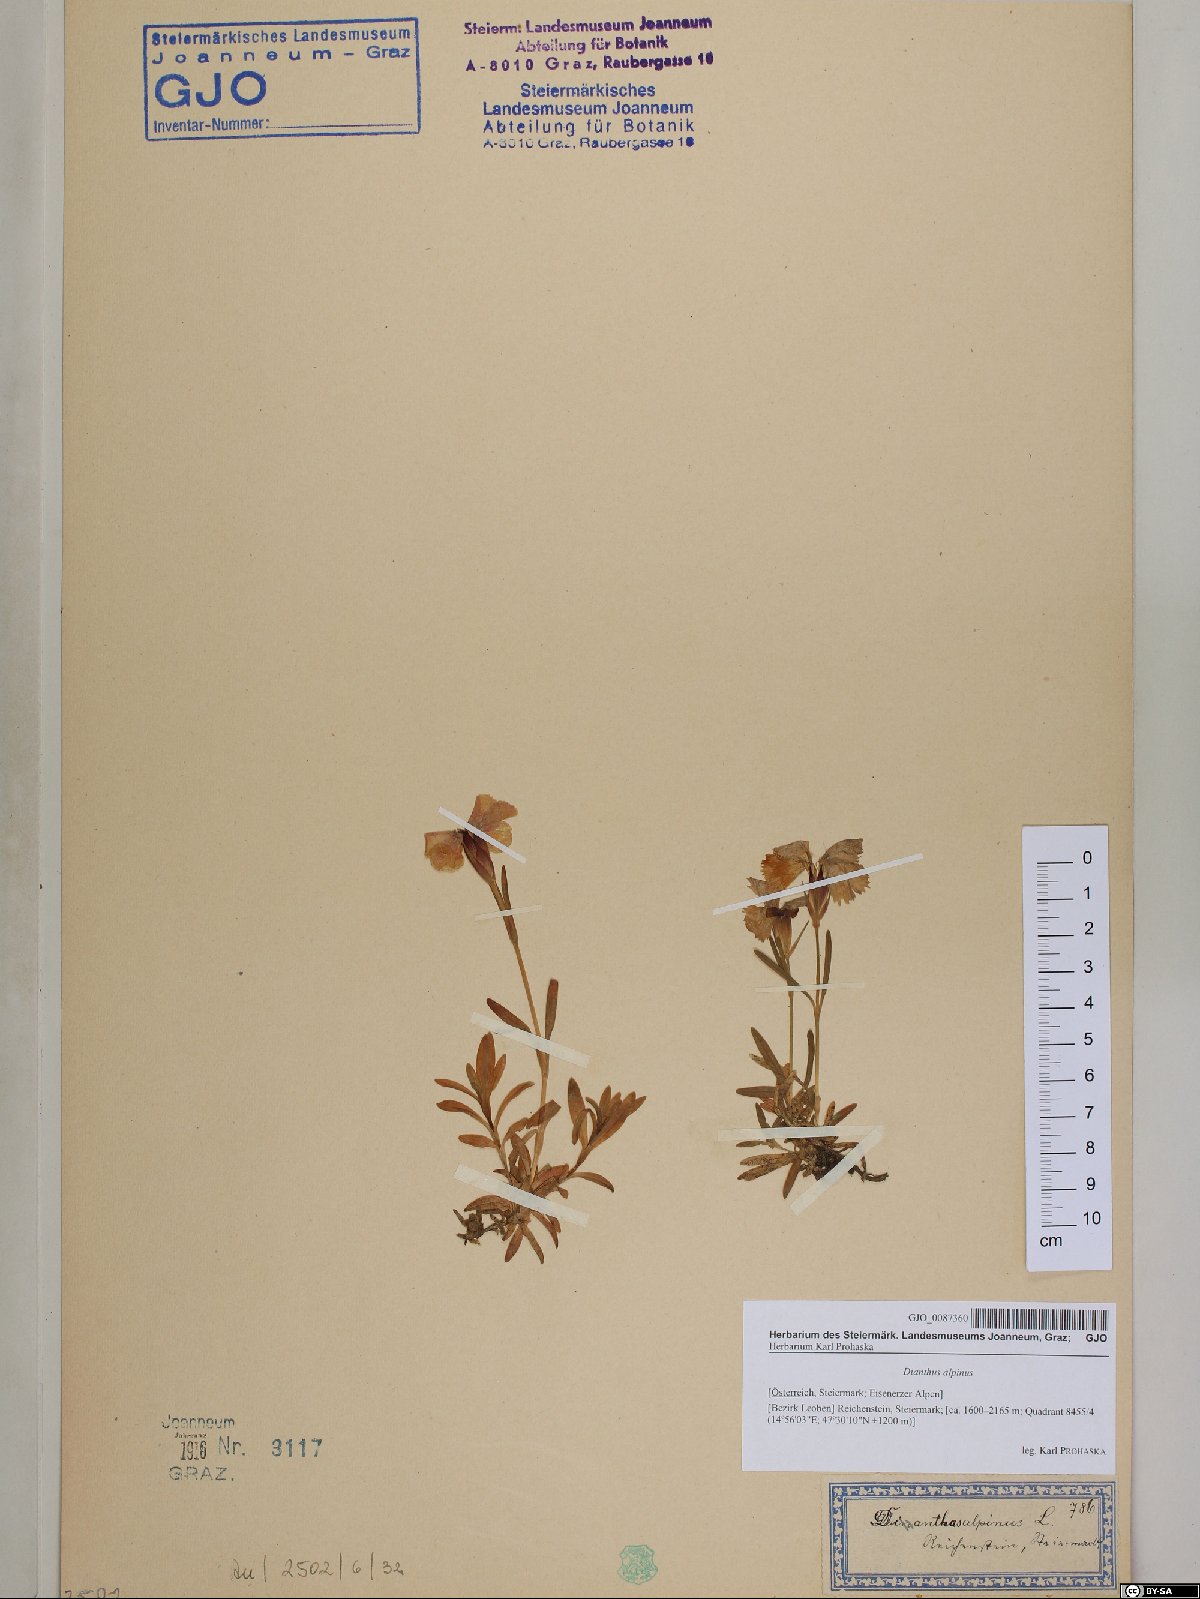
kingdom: Plantae
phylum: Tracheophyta
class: Magnoliopsida
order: Caryophyllales
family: Caryophyllaceae
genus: Dianthus
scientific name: Dianthus alpinus
